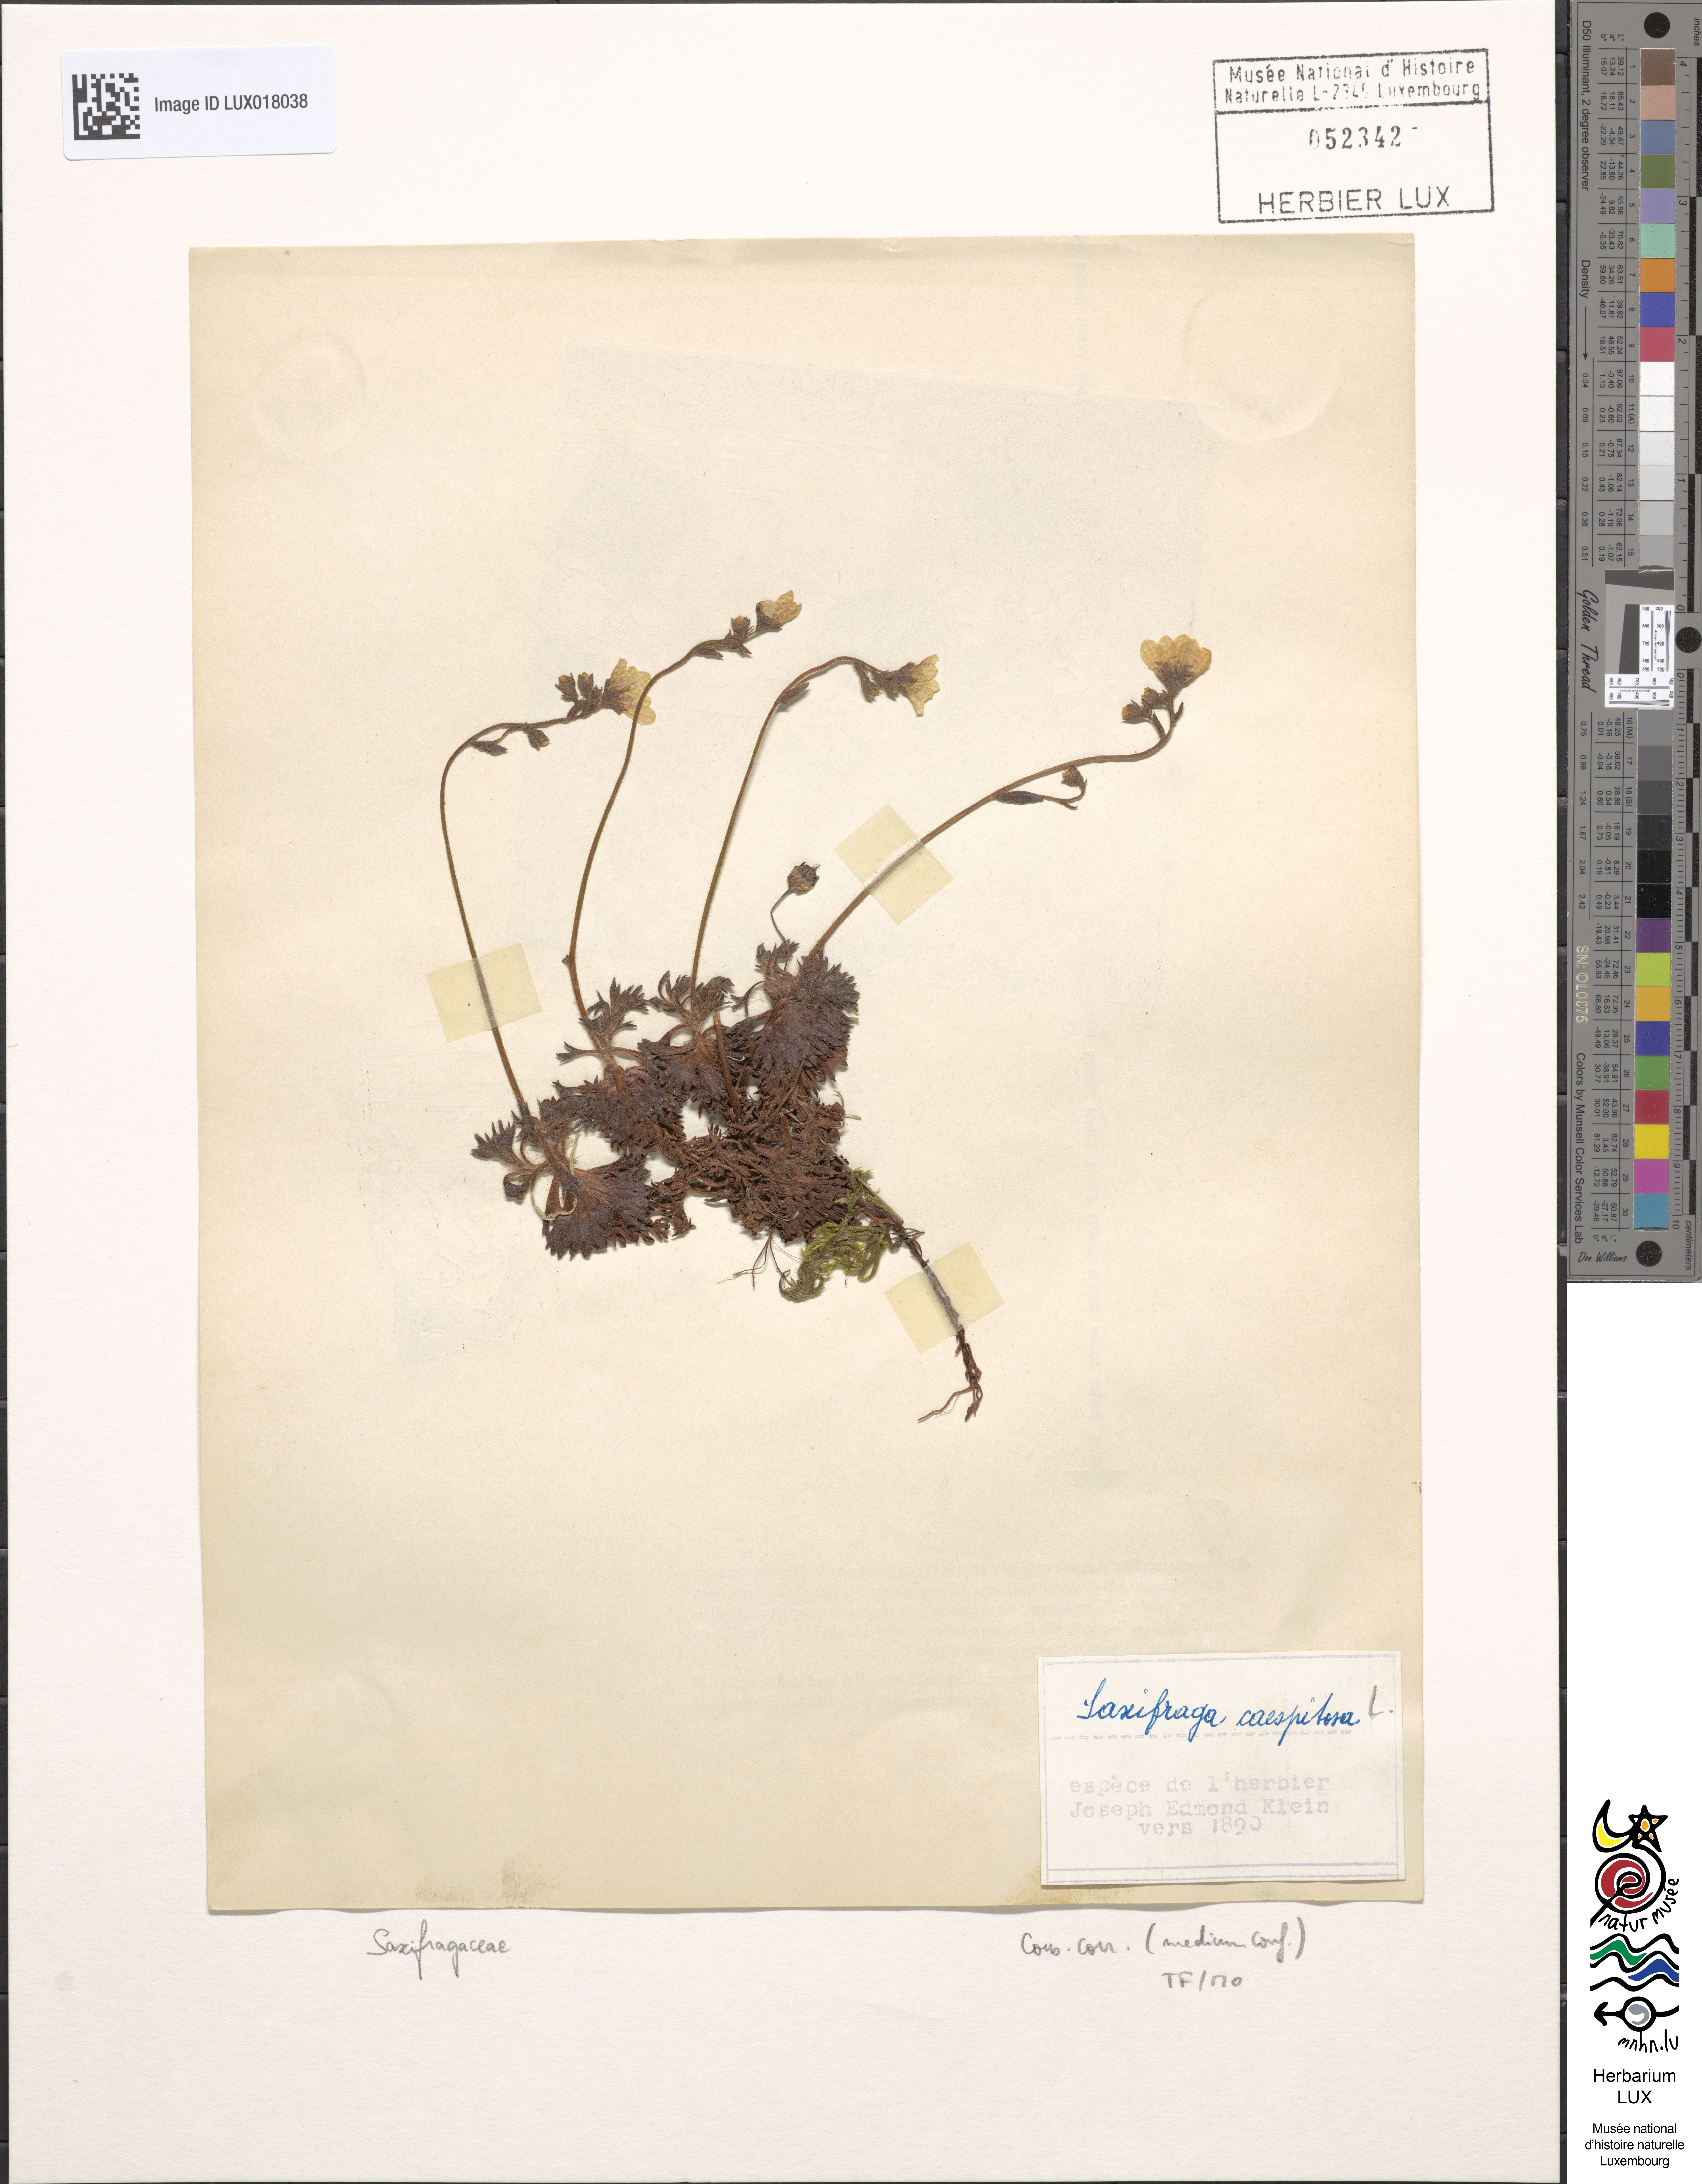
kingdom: Plantae
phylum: Tracheophyta
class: Magnoliopsida
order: Saxifragales
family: Saxifragaceae
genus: Saxifraga
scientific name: Saxifraga cespitosa
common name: Tufted saxifrage
